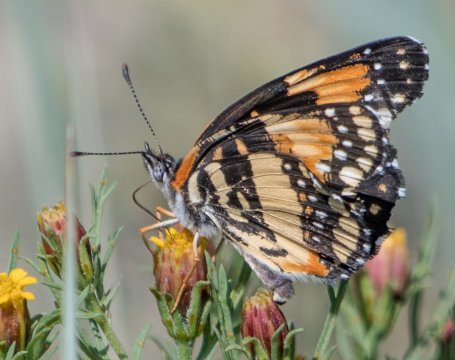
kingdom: Animalia
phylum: Arthropoda
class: Insecta
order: Lepidoptera
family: Nymphalidae
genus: Chlosyne
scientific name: Chlosyne lacinia
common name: Bordered Patch
